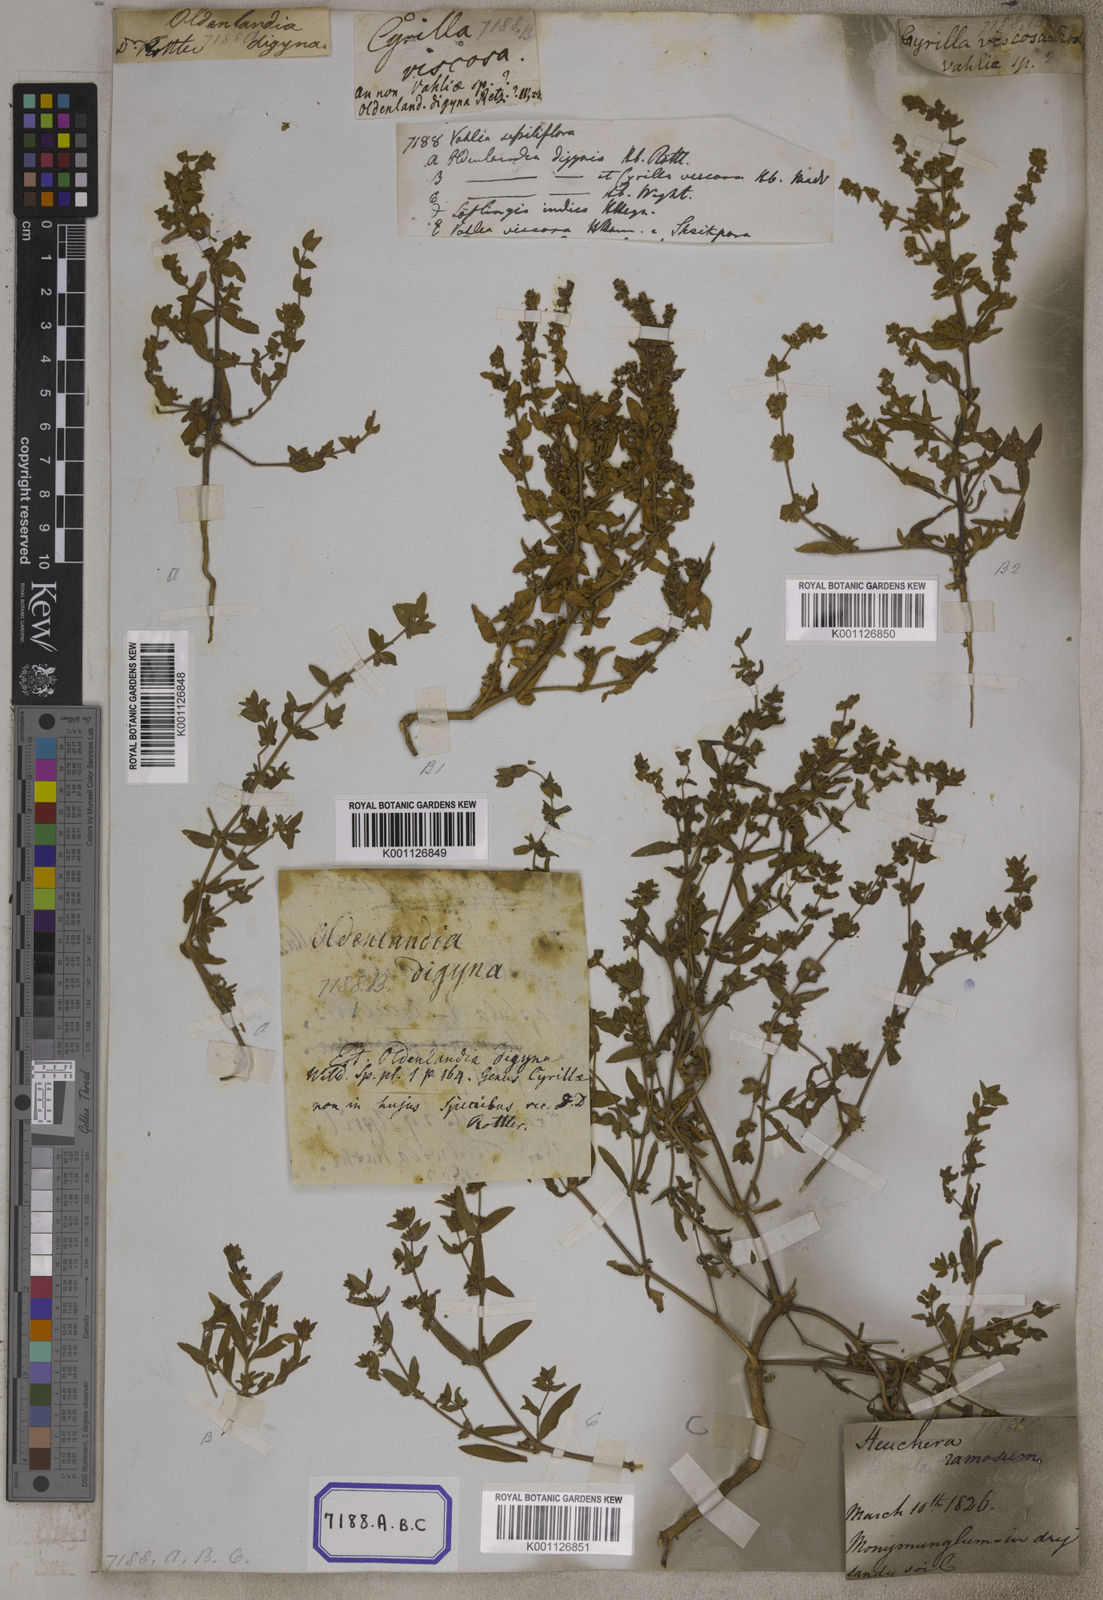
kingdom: Plantae
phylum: Tracheophyta
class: Magnoliopsida
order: Vahliales
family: Vahliaceae
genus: Vahlia
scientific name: Vahlia digyna
